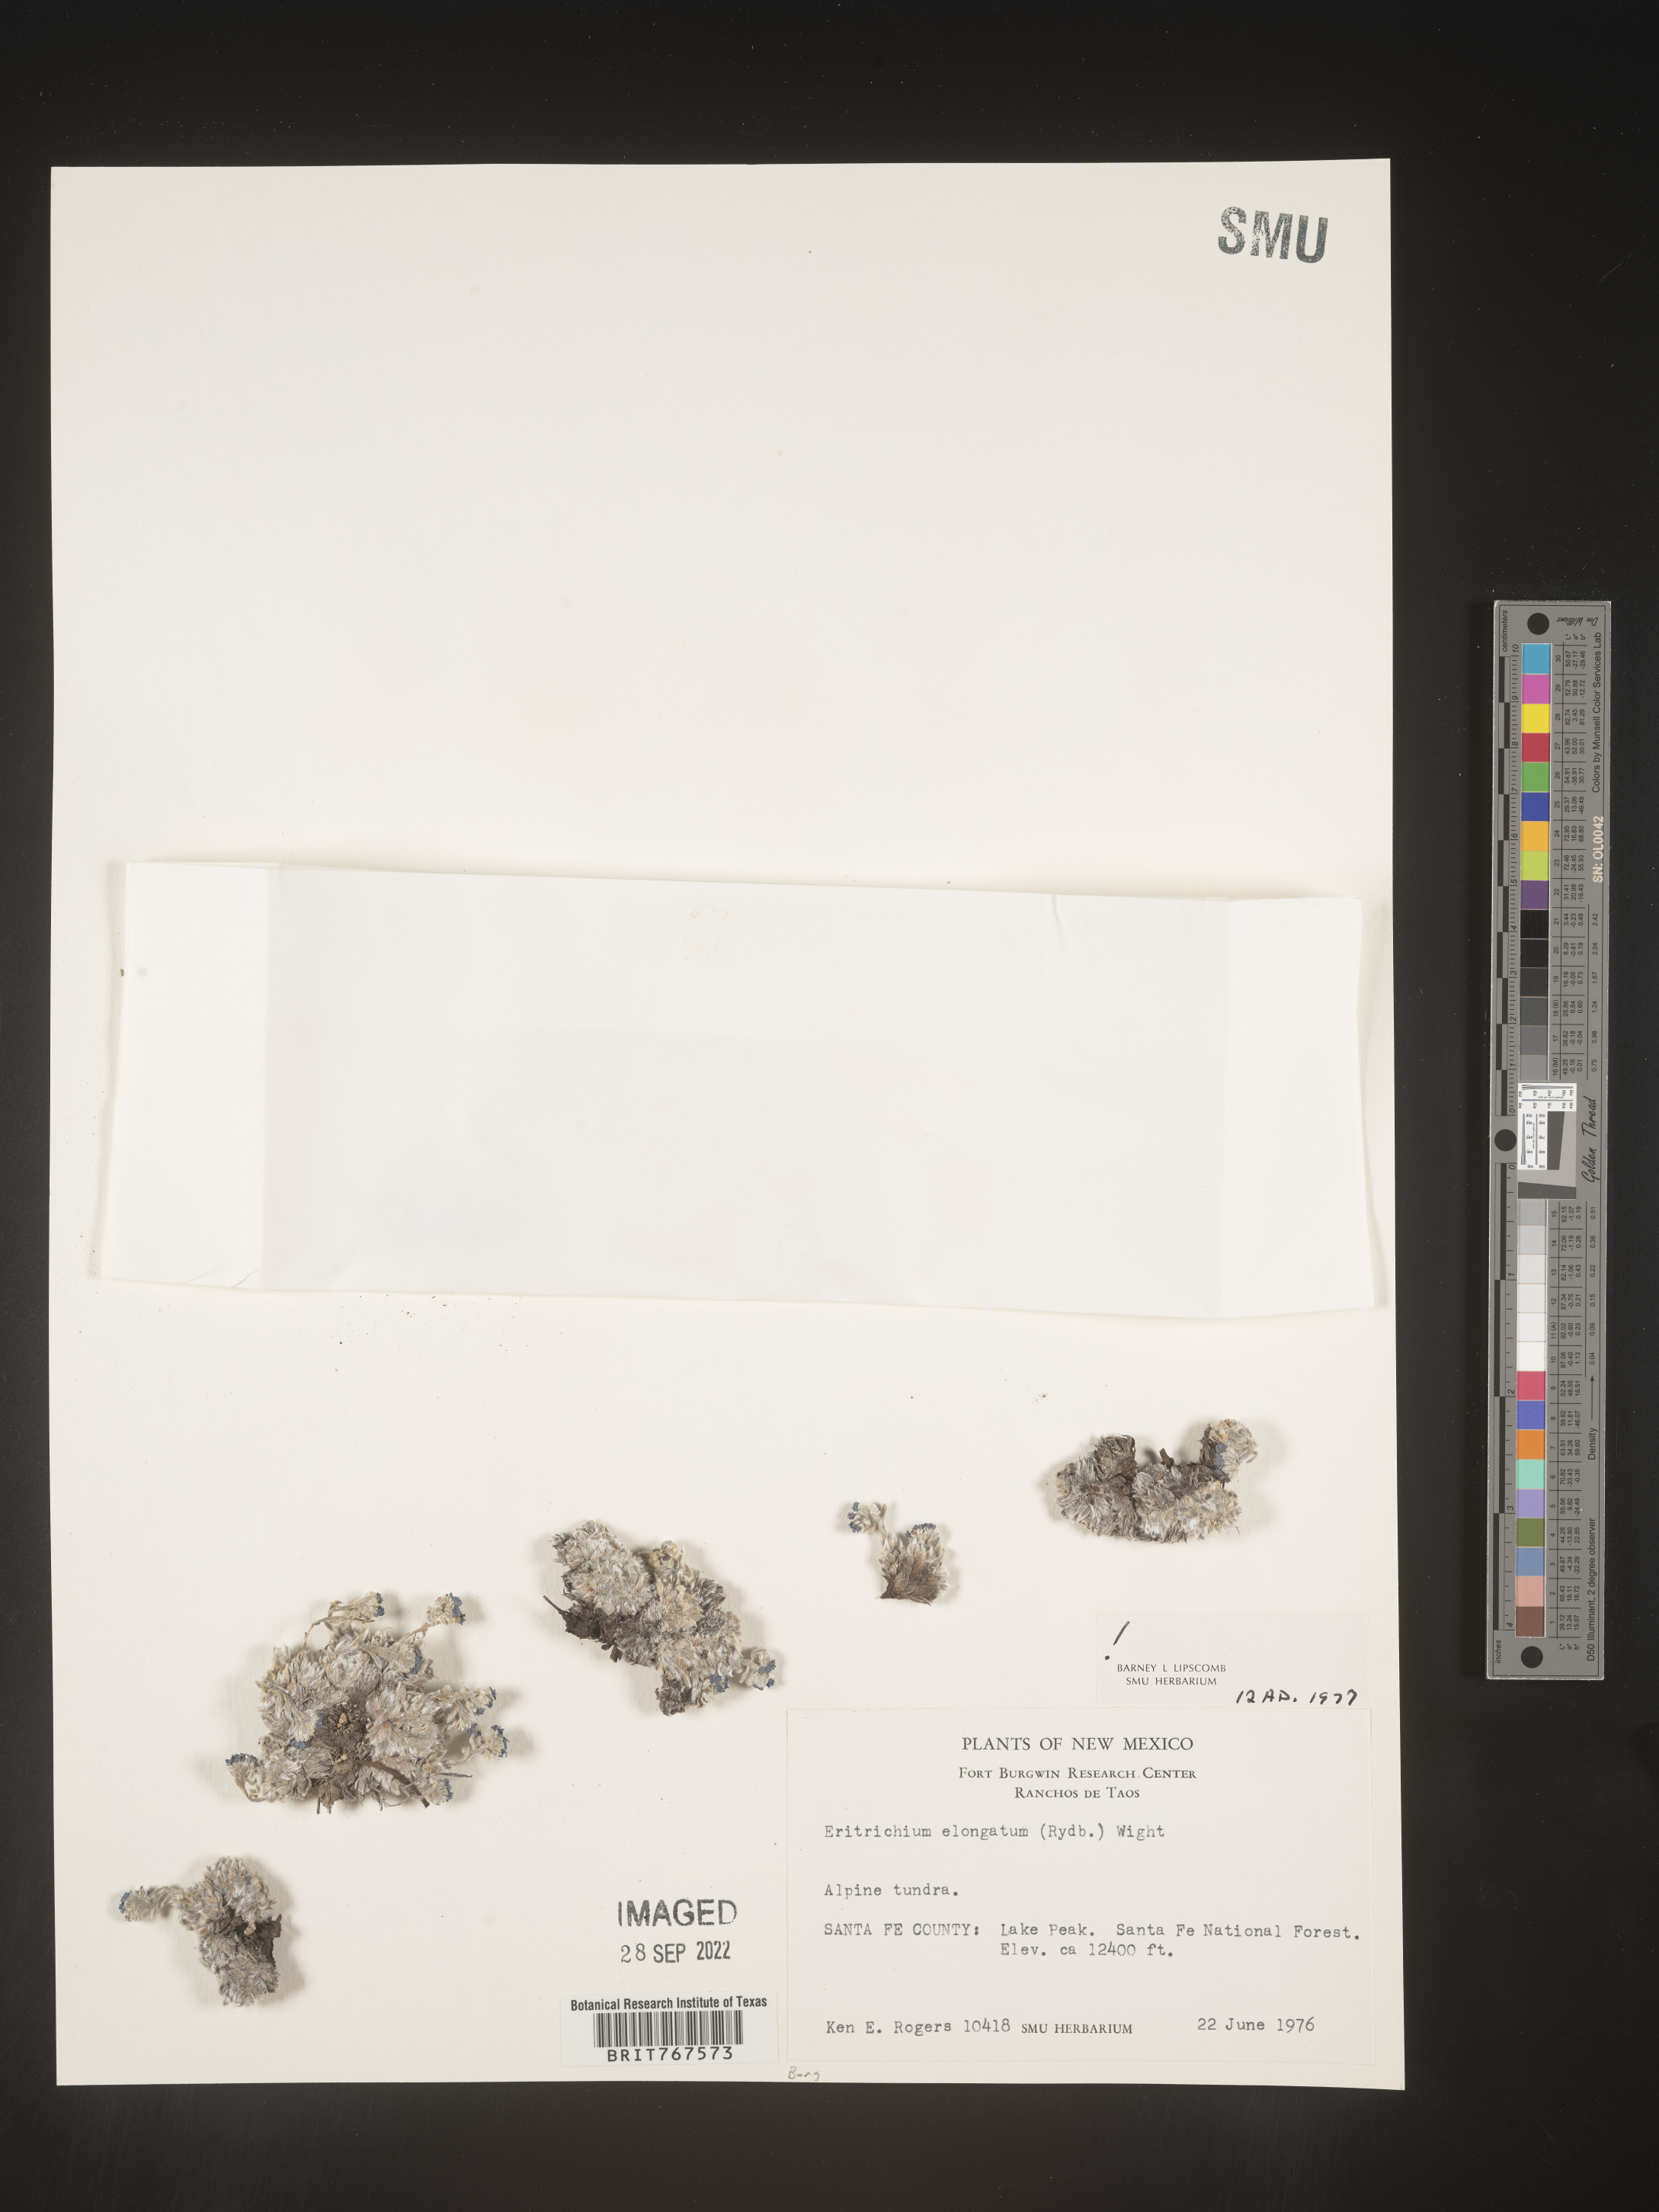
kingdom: Plantae
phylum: Tracheophyta
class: Magnoliopsida
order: Boraginales
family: Boraginaceae
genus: Eritrichium
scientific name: Eritrichium
